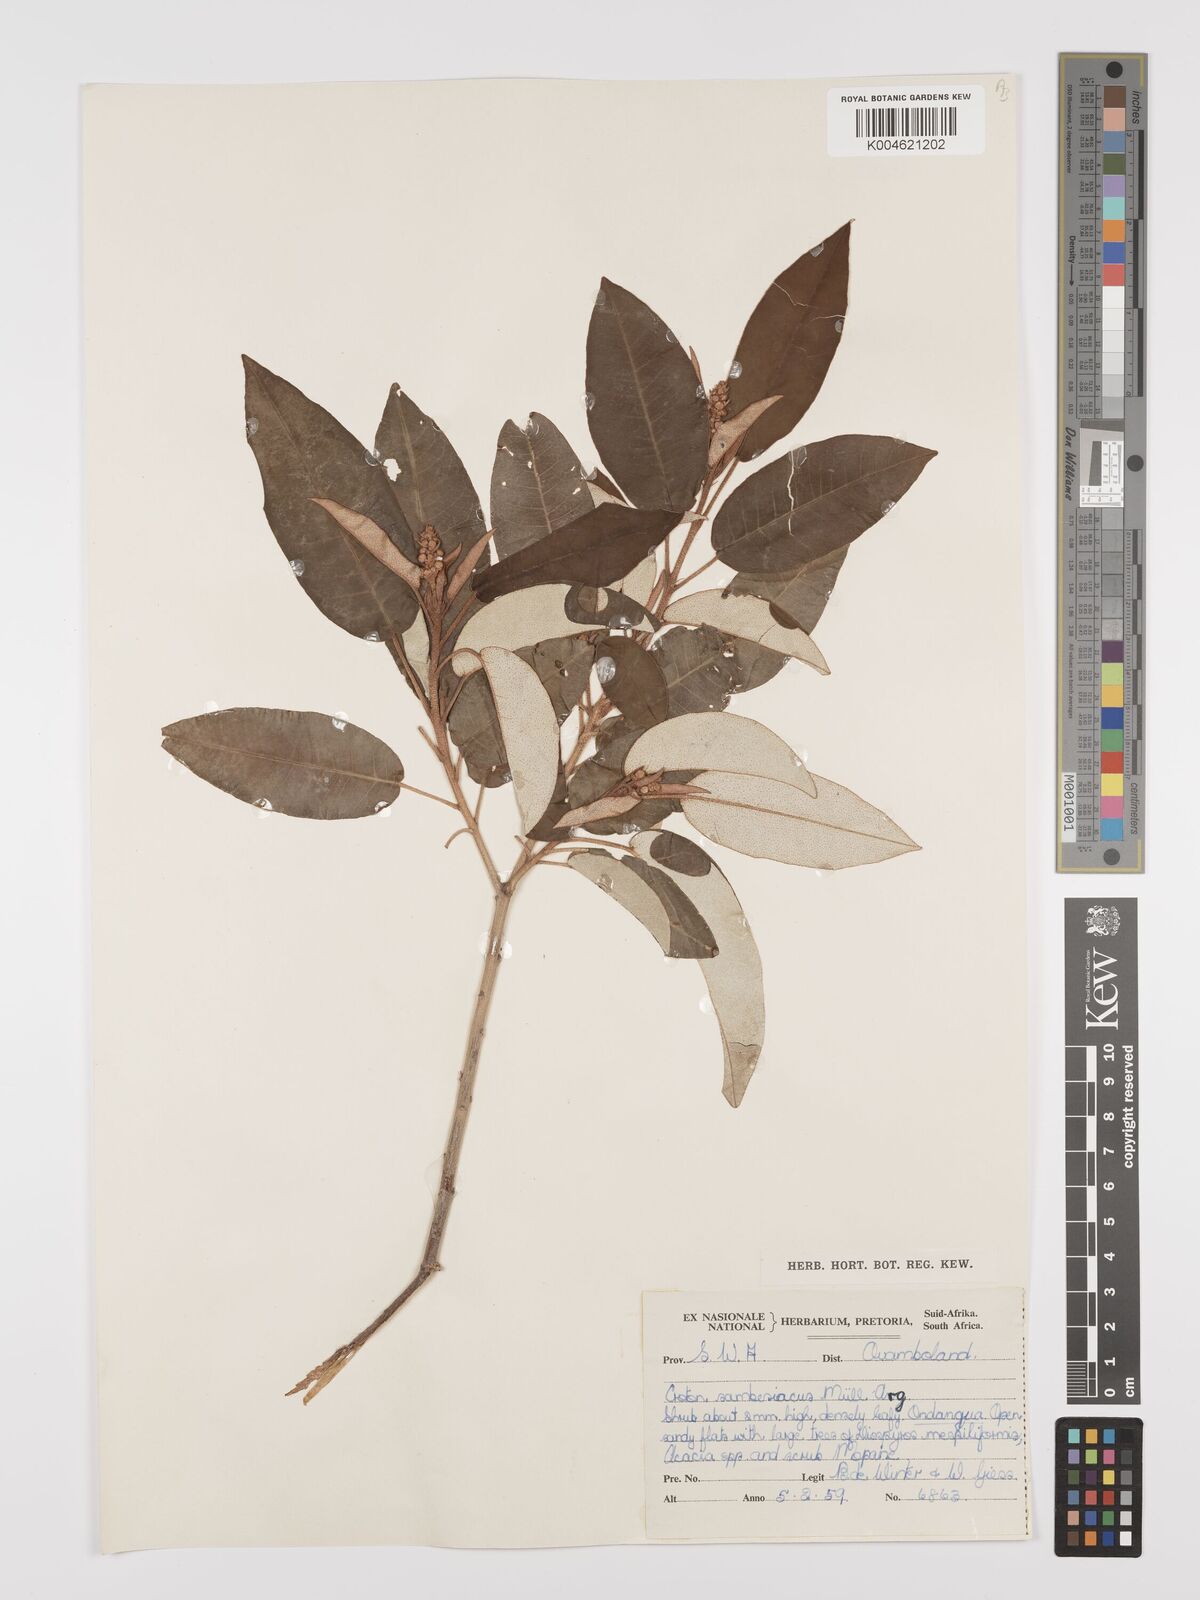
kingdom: Plantae
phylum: Tracheophyta
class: Magnoliopsida
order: Malpighiales
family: Euphorbiaceae
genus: Croton
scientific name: Croton gratissimus
